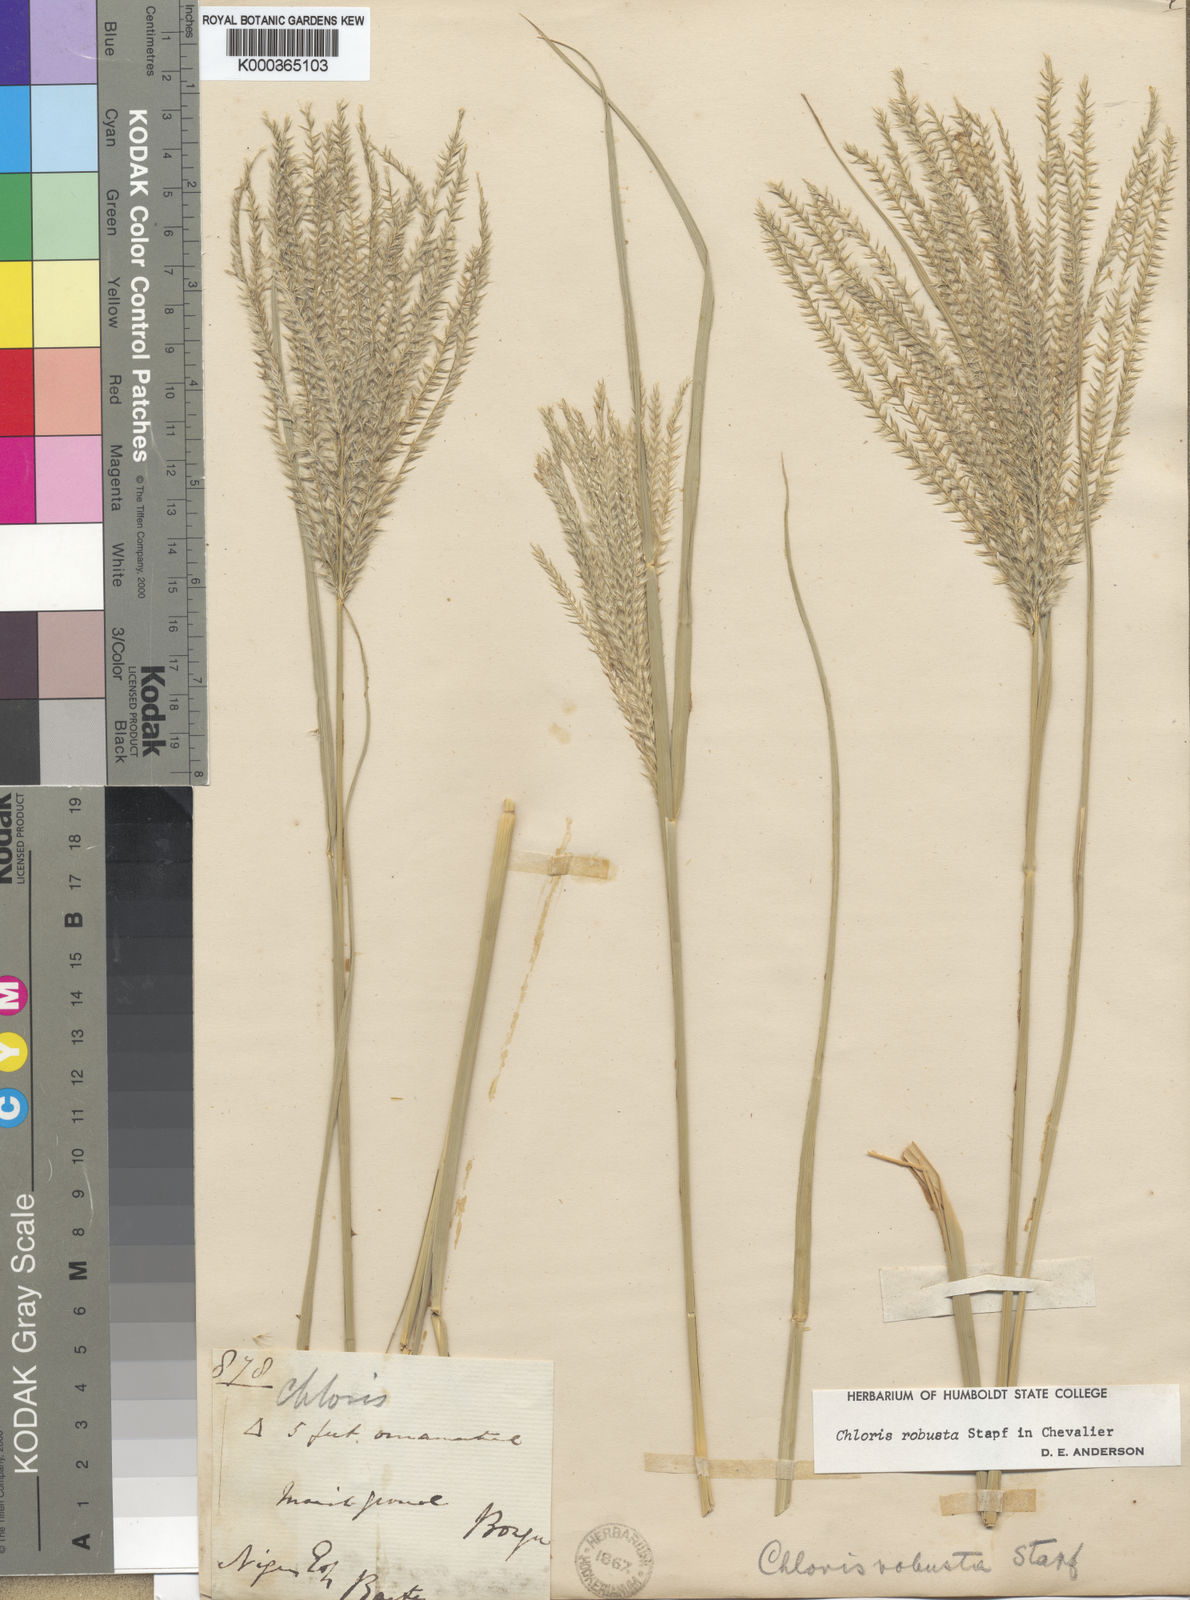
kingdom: Plantae
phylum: Tracheophyta
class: Liliopsida
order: Poales
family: Poaceae
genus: Chloris
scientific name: Chloris robusta
